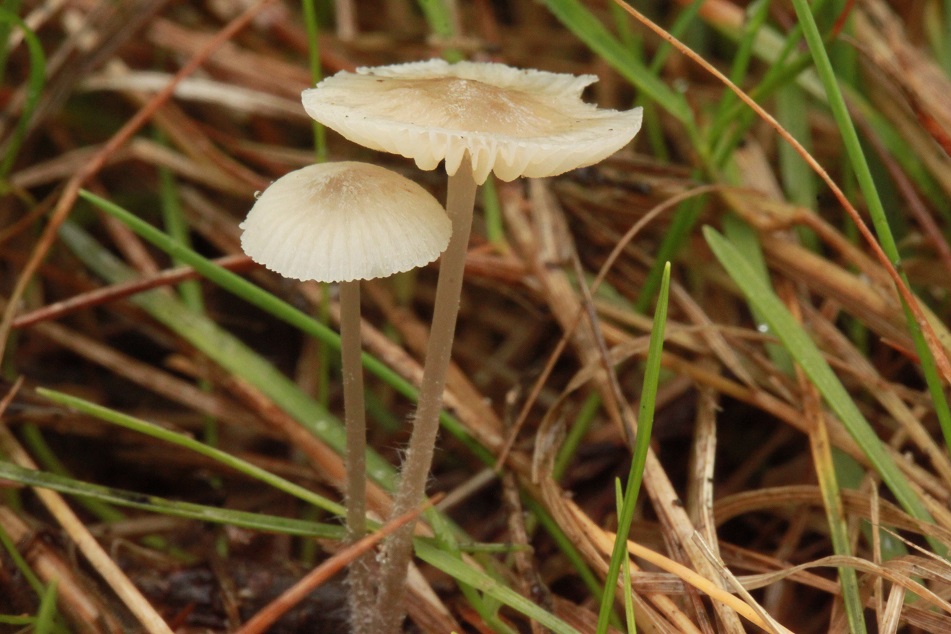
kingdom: Fungi
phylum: Basidiomycota
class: Agaricomycetes
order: Agaricales
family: Mycenaceae
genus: Mycena
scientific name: Mycena flavescens
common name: grågul huesvamp
